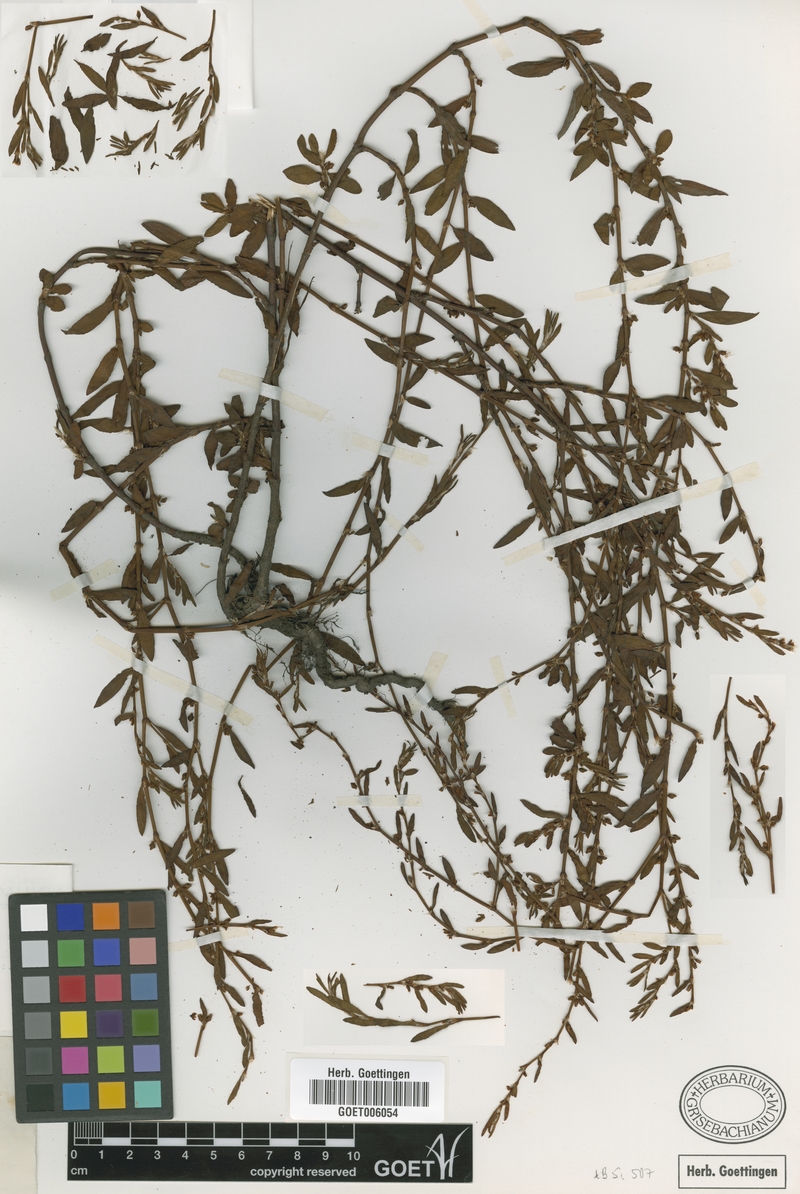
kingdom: Plantae
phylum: Tracheophyta
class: Magnoliopsida
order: Caryophyllales
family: Polygonaceae
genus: Polygonum
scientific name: Polygonum aviculare
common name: Prostrate knotweed
